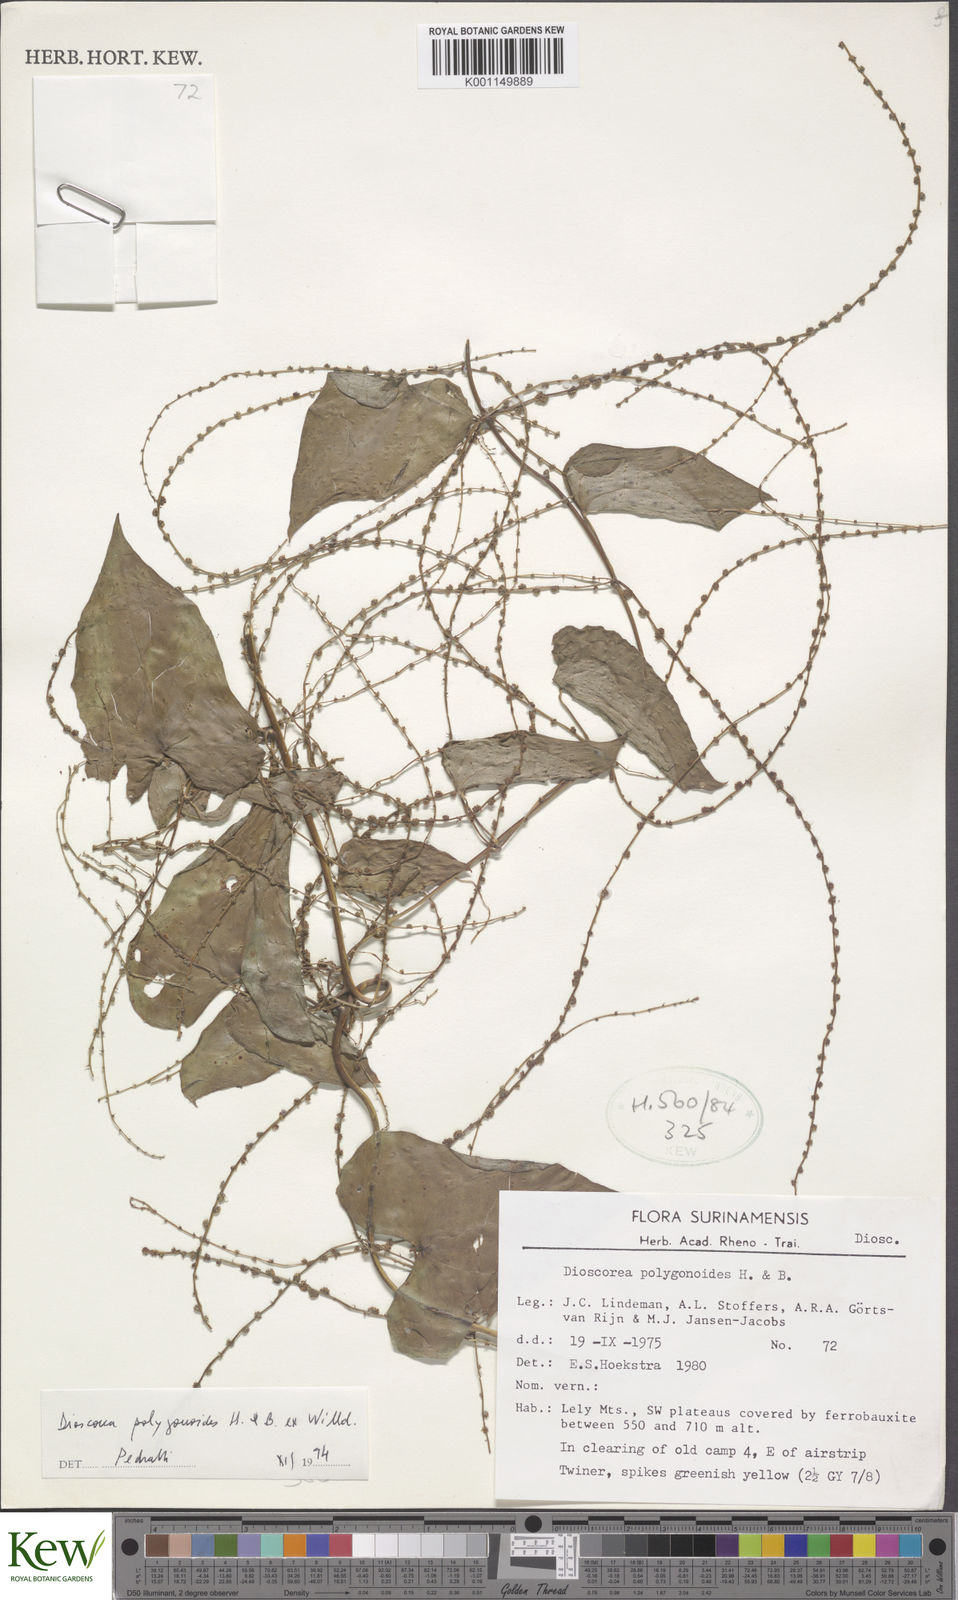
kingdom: Plantae
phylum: Tracheophyta
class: Liliopsida
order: Dioscoreales
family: Dioscoreaceae
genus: Dioscorea
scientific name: Dioscorea polygonoides
